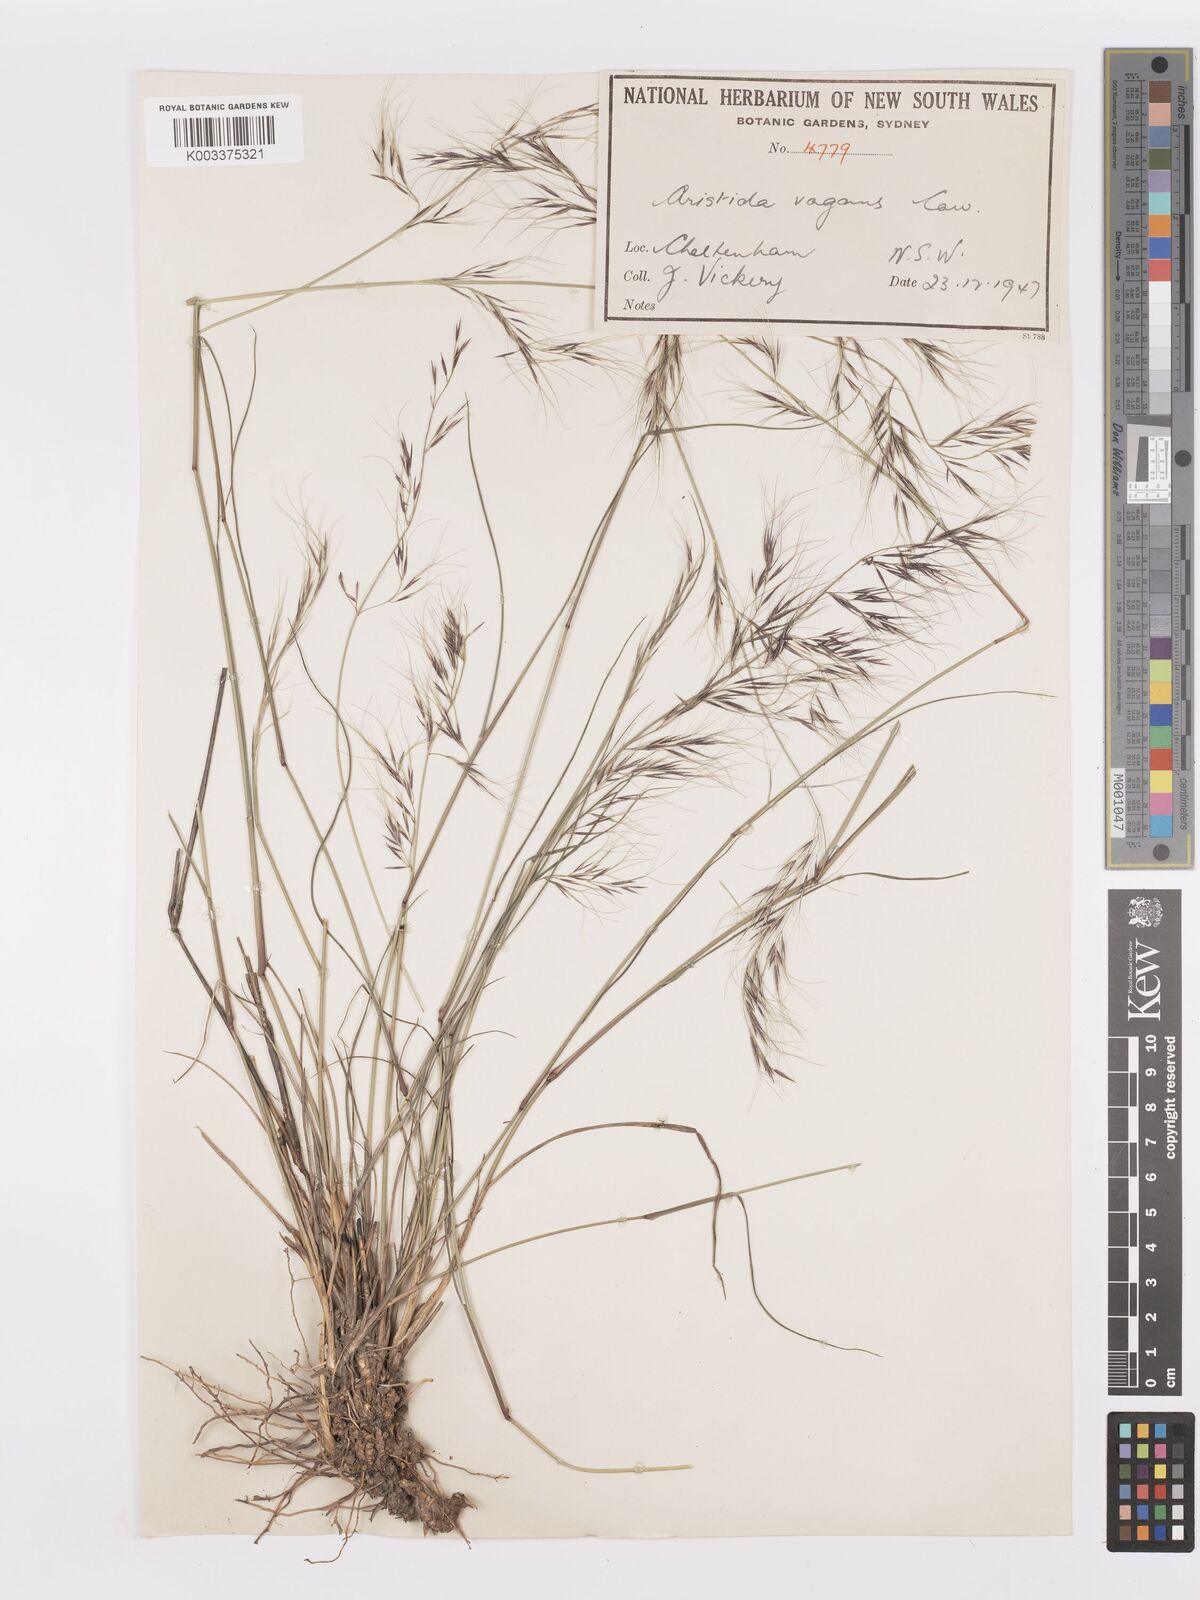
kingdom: Plantae
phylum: Tracheophyta
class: Liliopsida
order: Poales
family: Poaceae
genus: Aristida
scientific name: Aristida vagans
